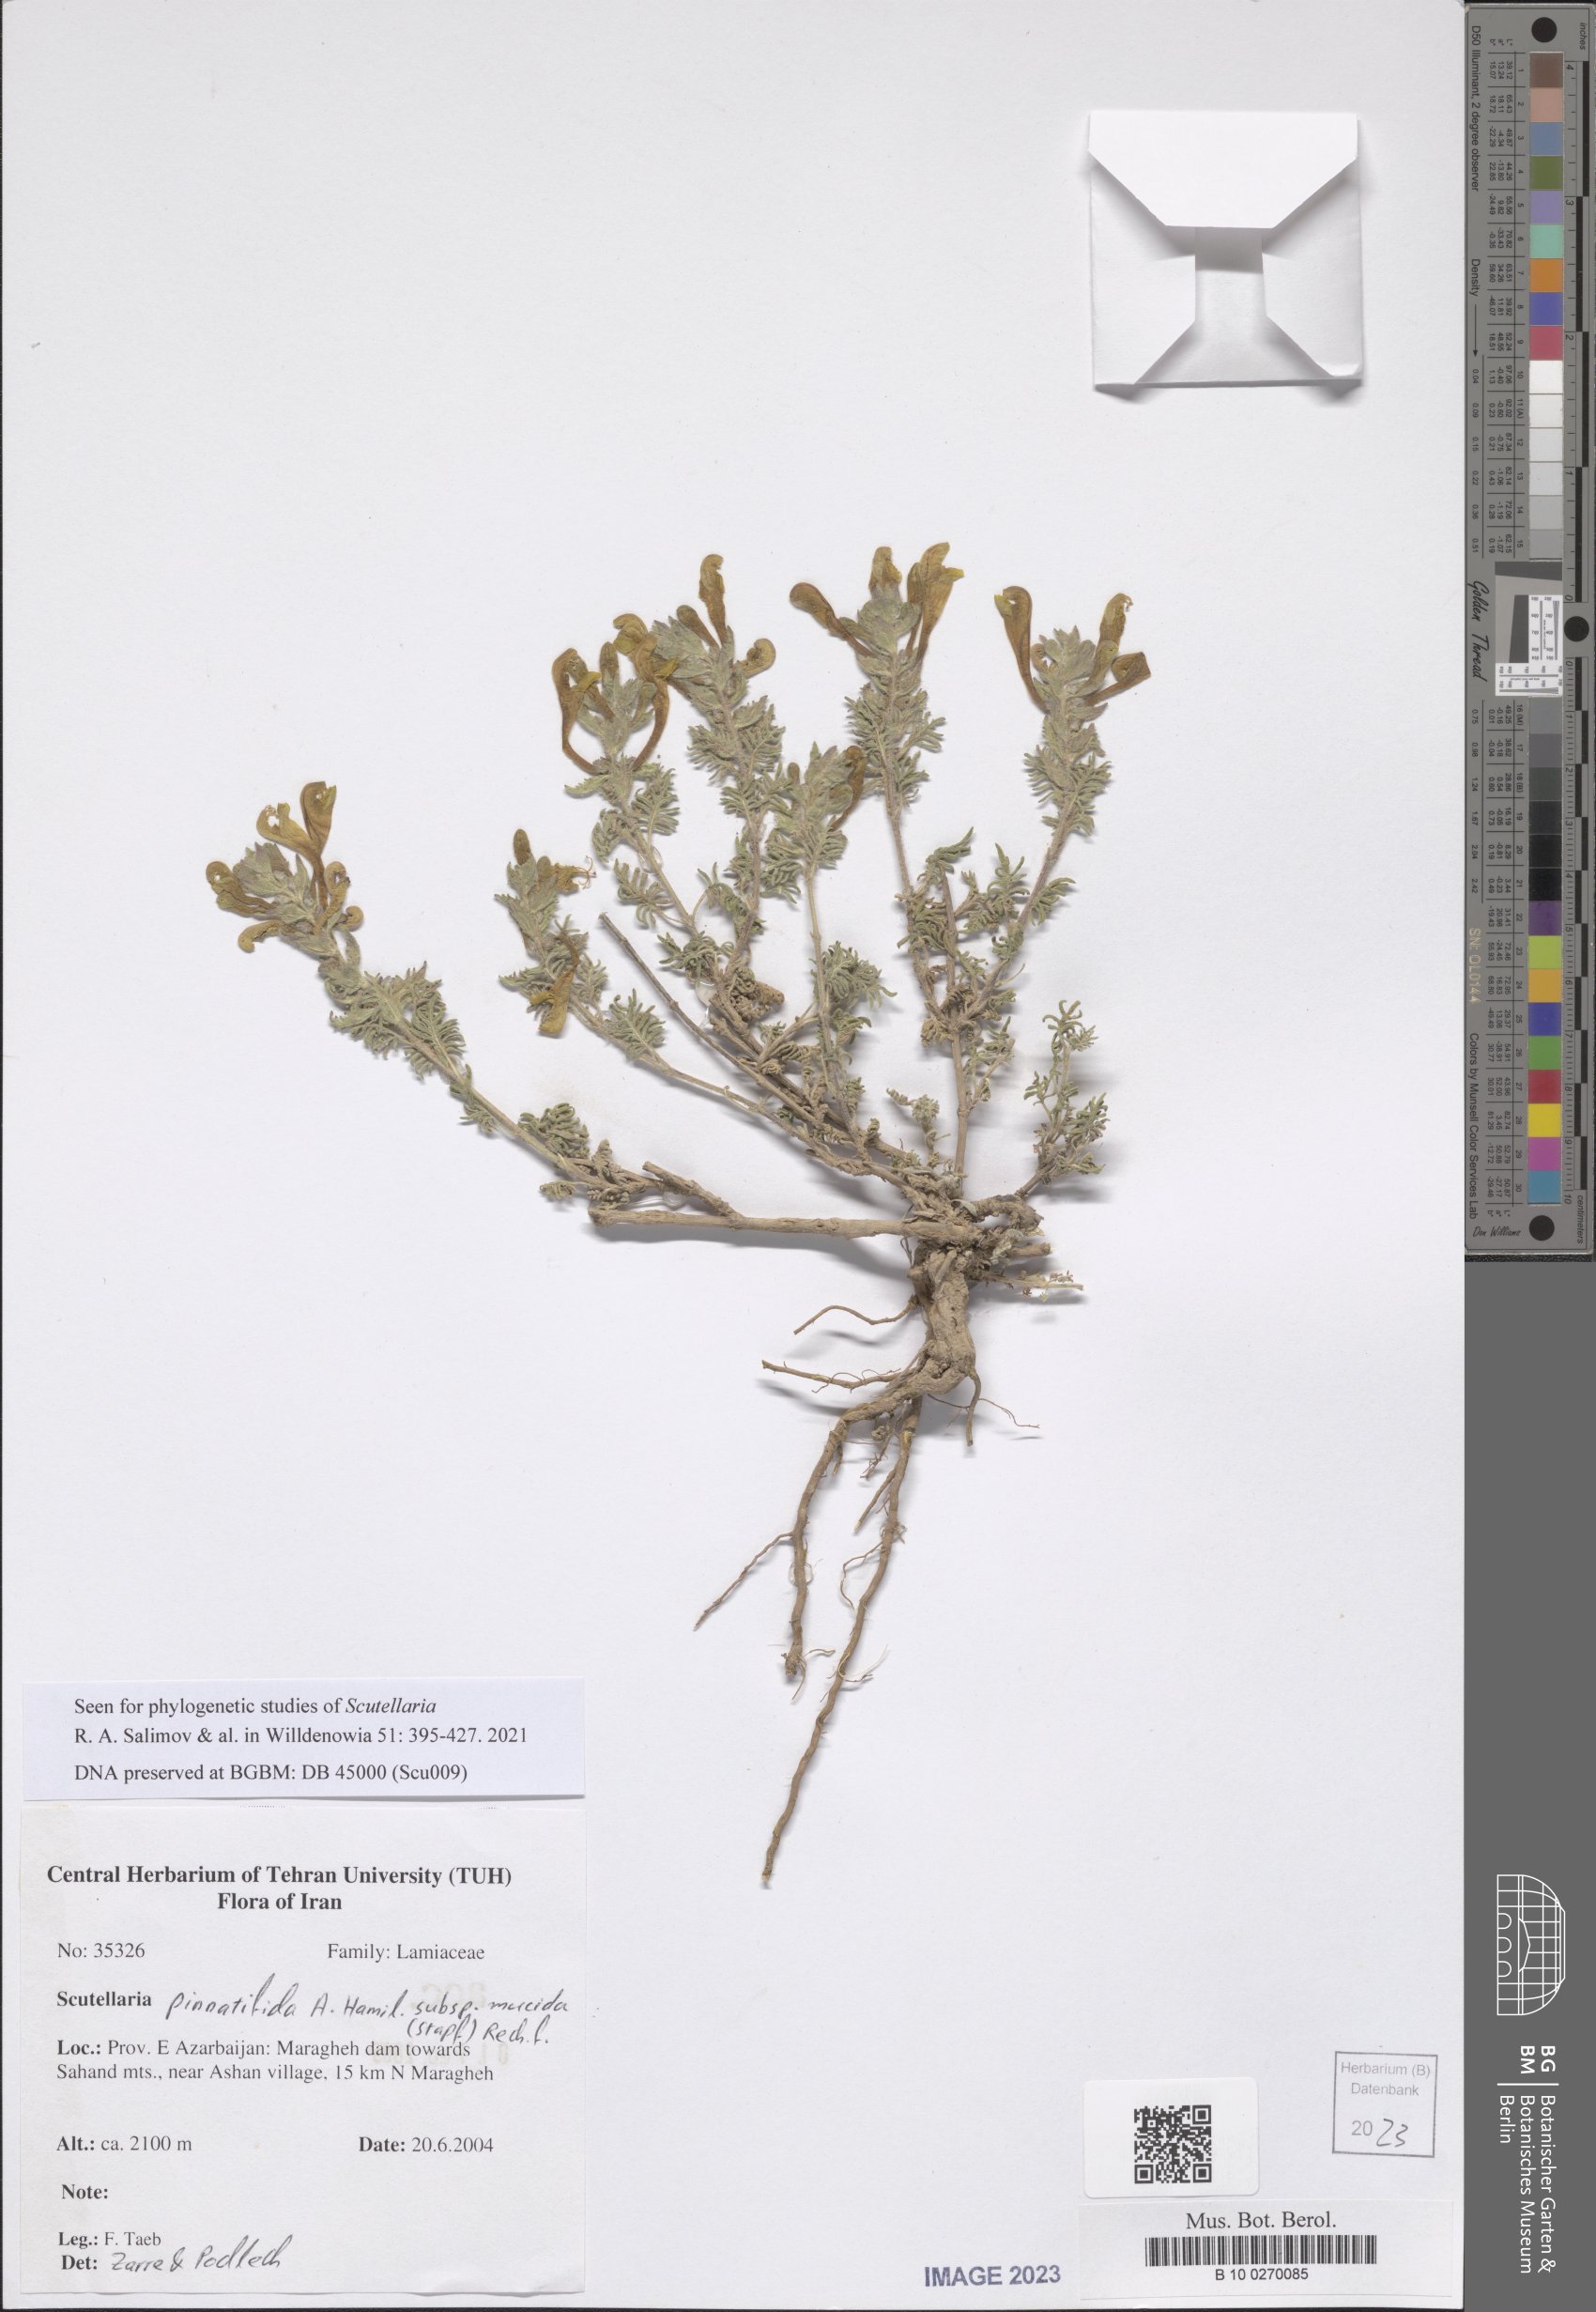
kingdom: Plantae
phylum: Tracheophyta
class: Magnoliopsida
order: Lamiales
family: Lamiaceae
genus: Scutellaria
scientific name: Scutellaria pinnatifida
